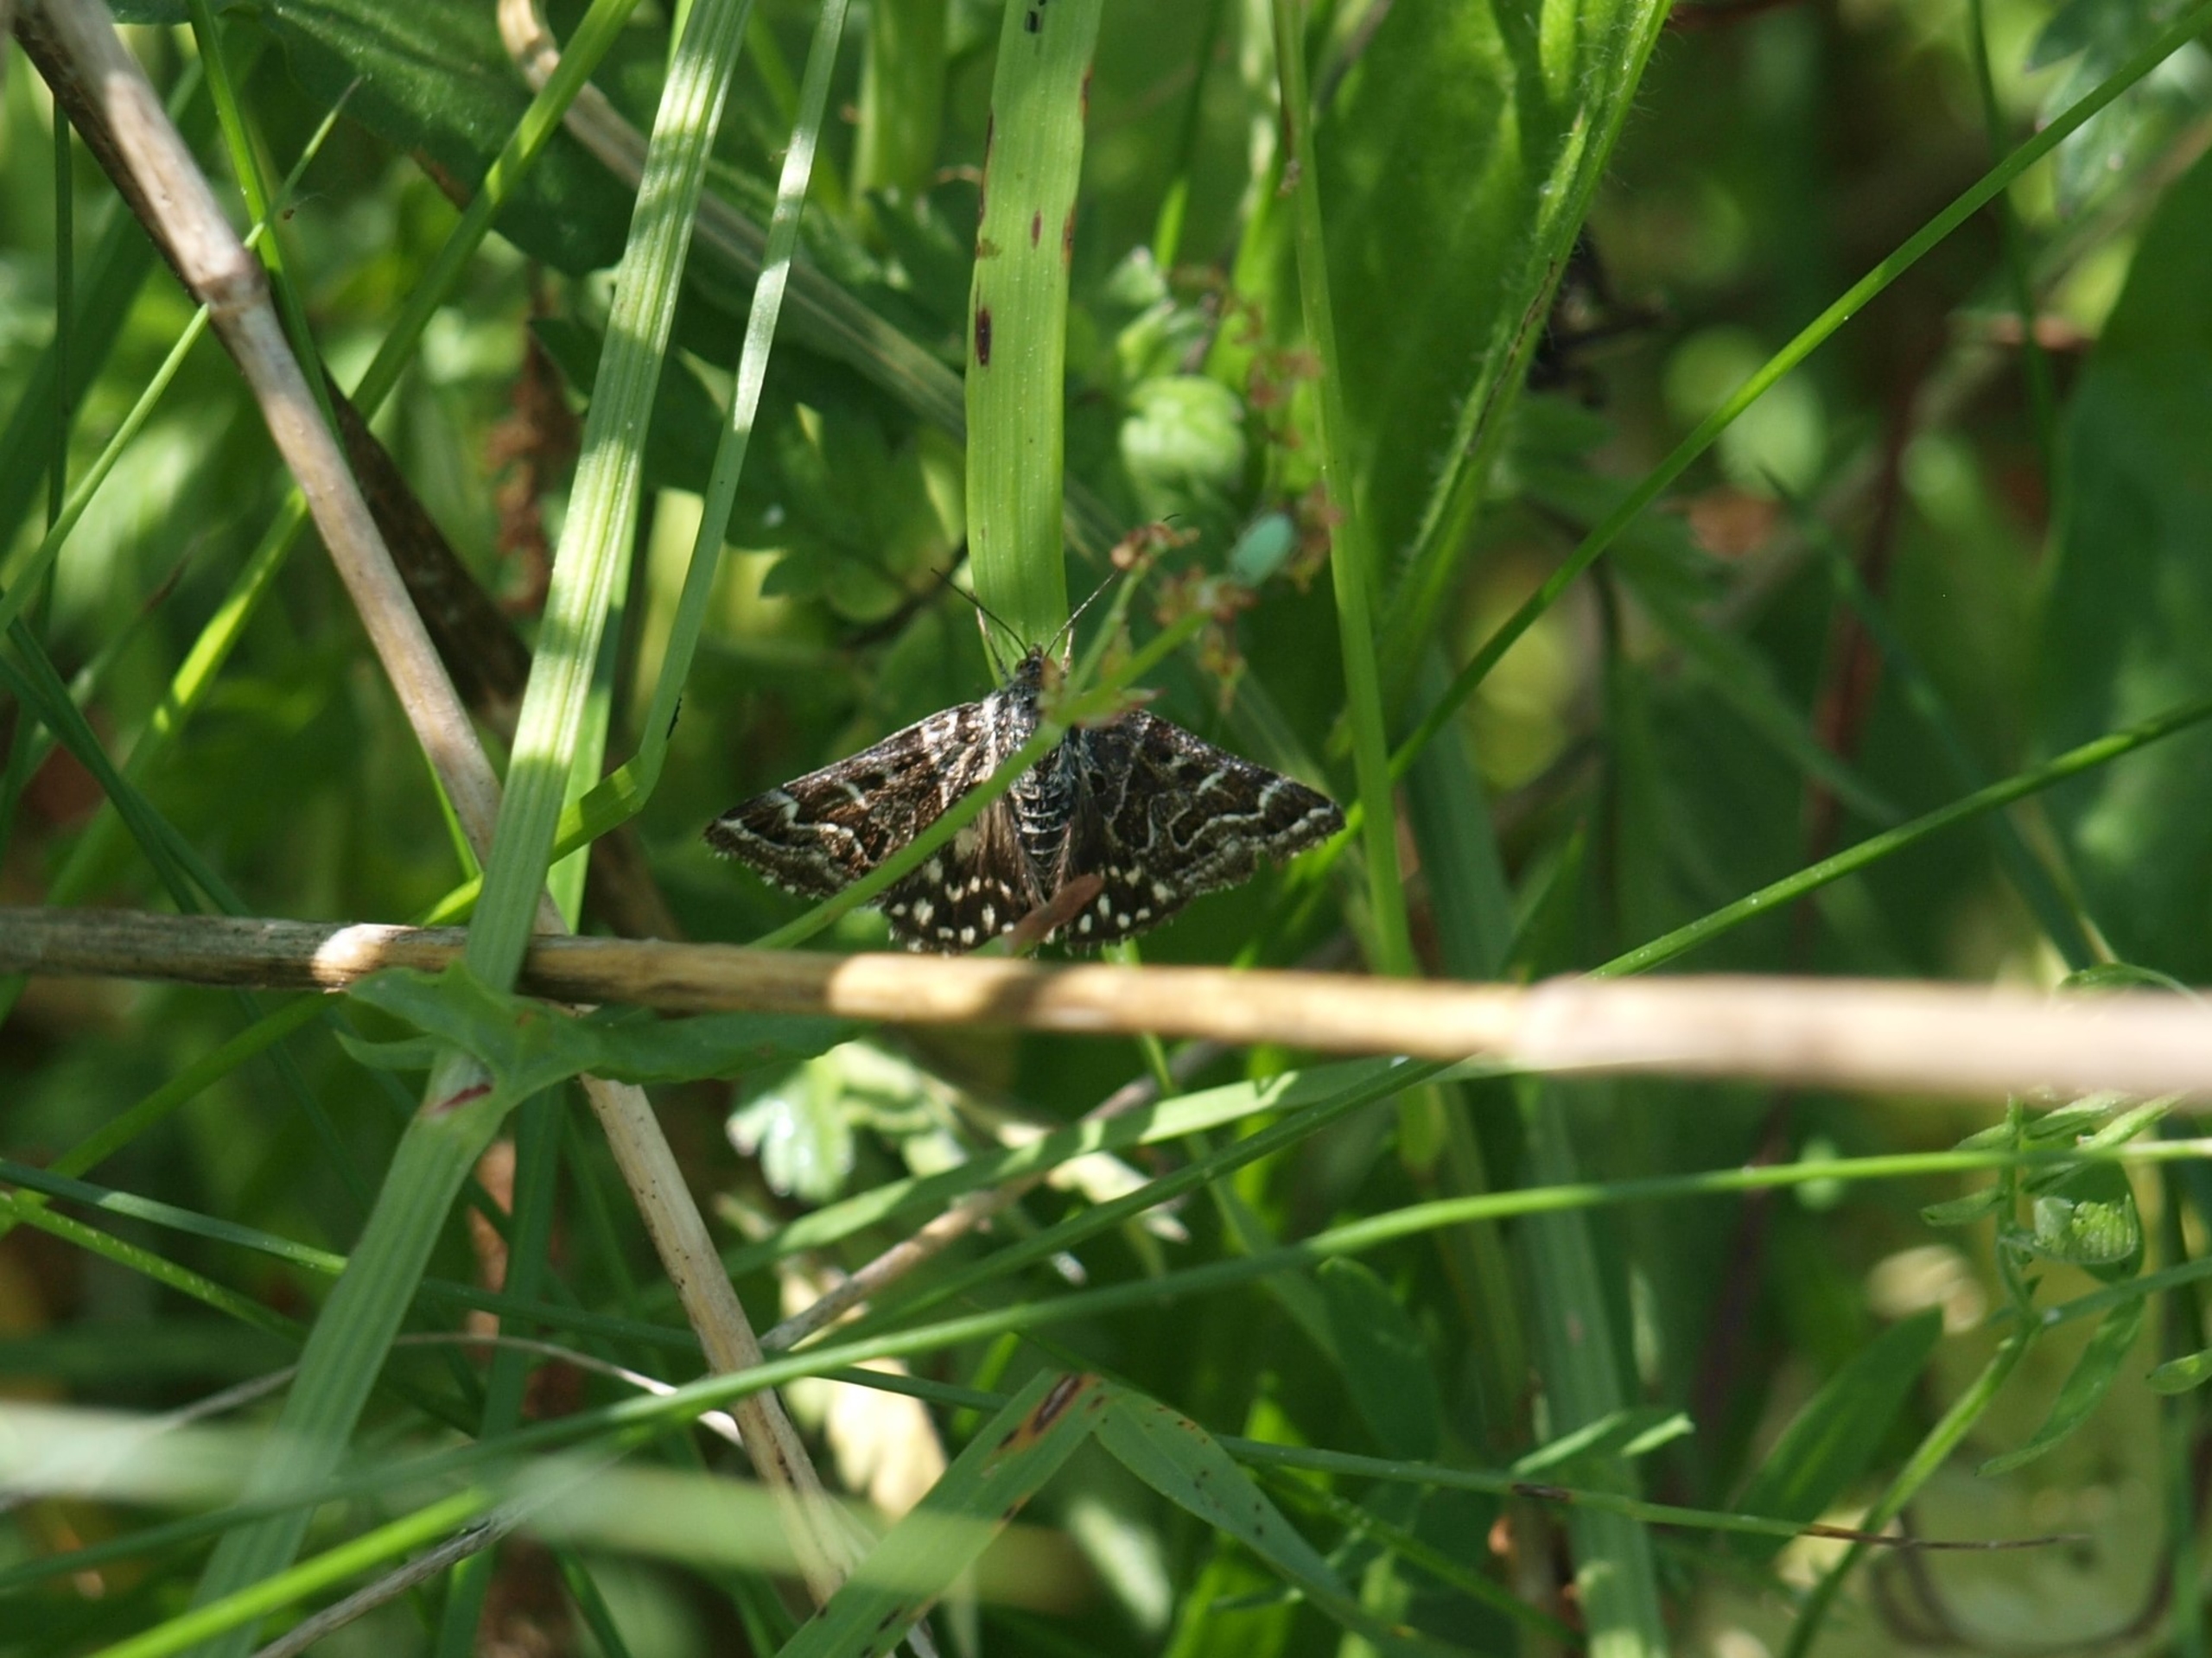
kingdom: Animalia
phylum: Arthropoda
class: Insecta
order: Lepidoptera
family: Erebidae
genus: Callistege
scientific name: Callistege mi
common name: Marmoreret kløverugle
